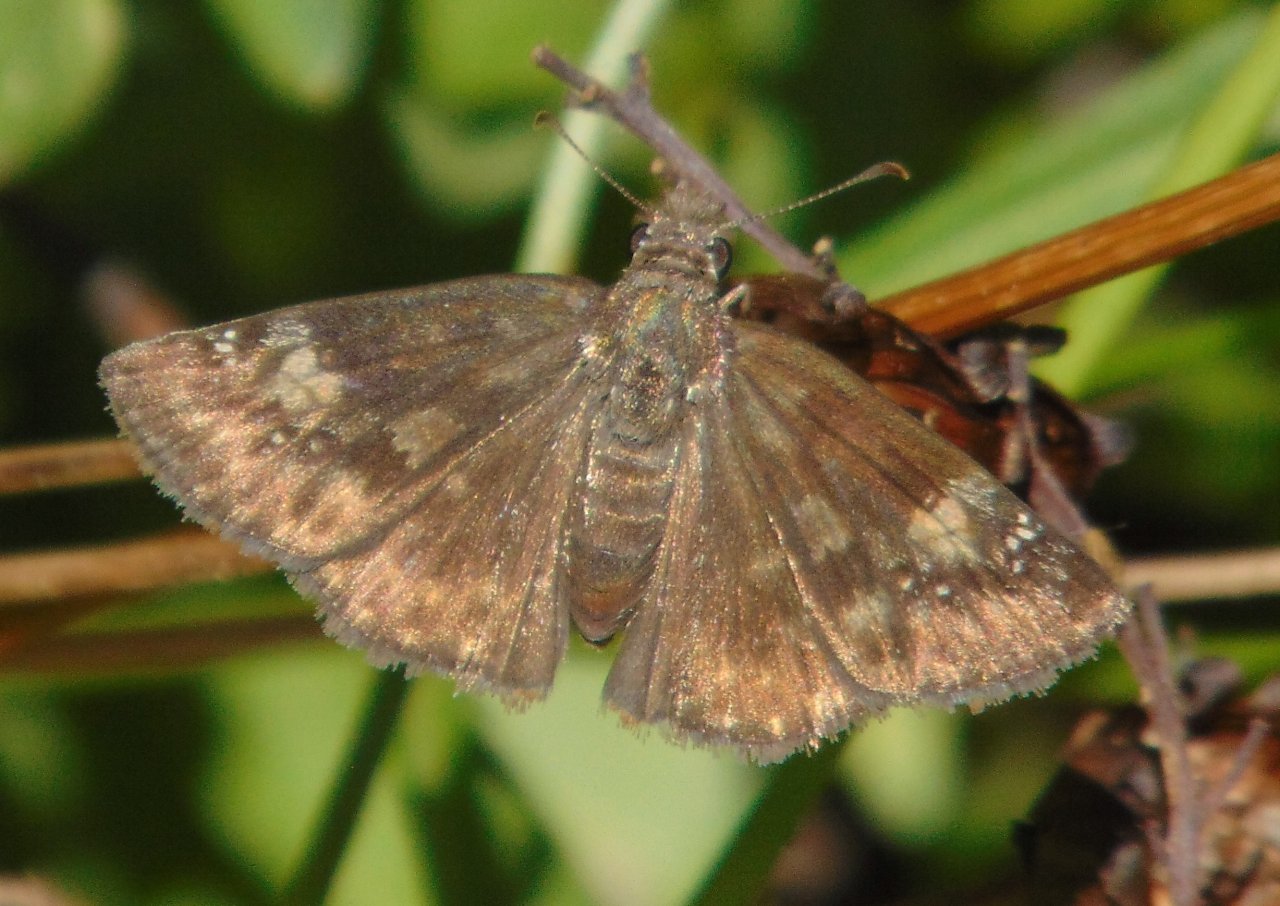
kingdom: Animalia
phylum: Arthropoda
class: Insecta
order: Lepidoptera
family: Hesperiidae
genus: Gesta
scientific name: Gesta
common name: Wild Indigo Duskywing
